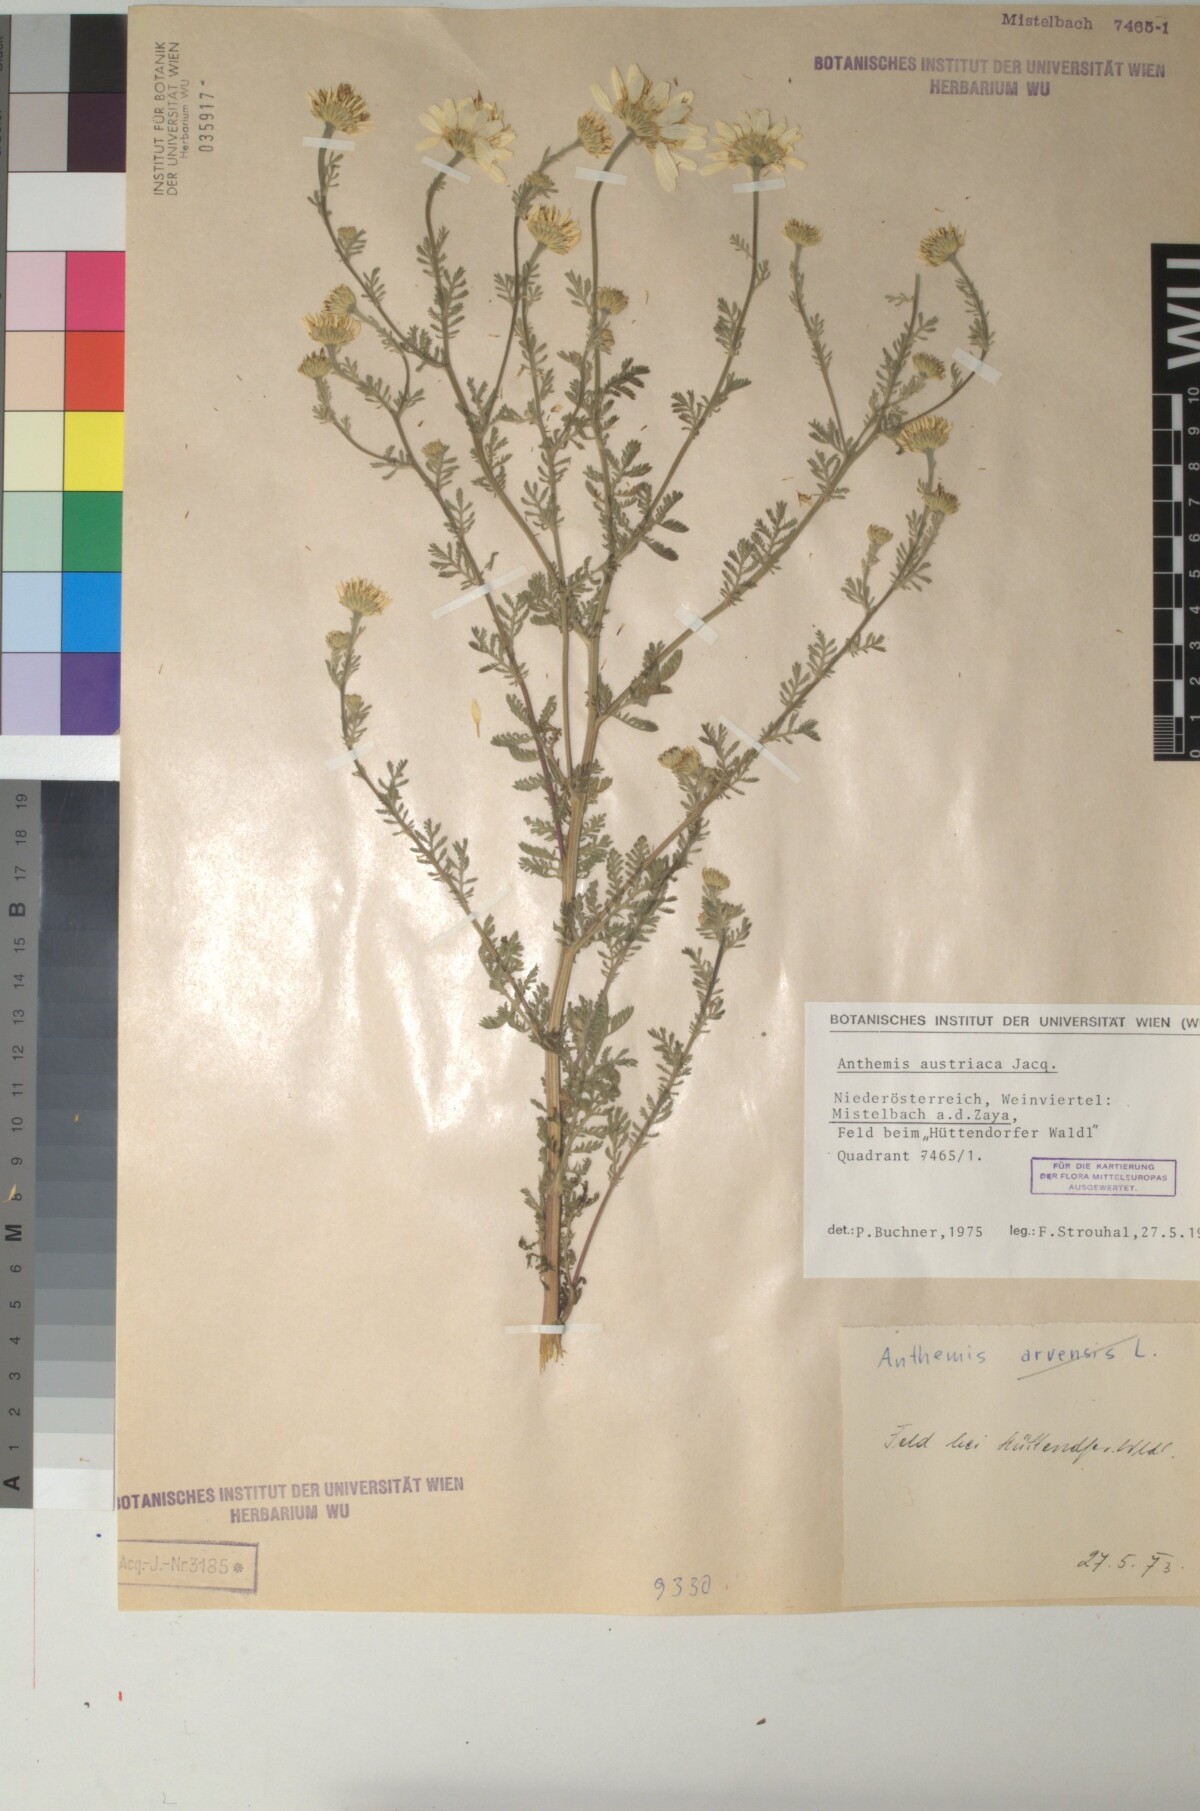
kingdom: Plantae
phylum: Tracheophyta
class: Magnoliopsida
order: Asterales
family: Asteraceae
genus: Cota
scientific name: Cota austriaca
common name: Austrian chamomile
